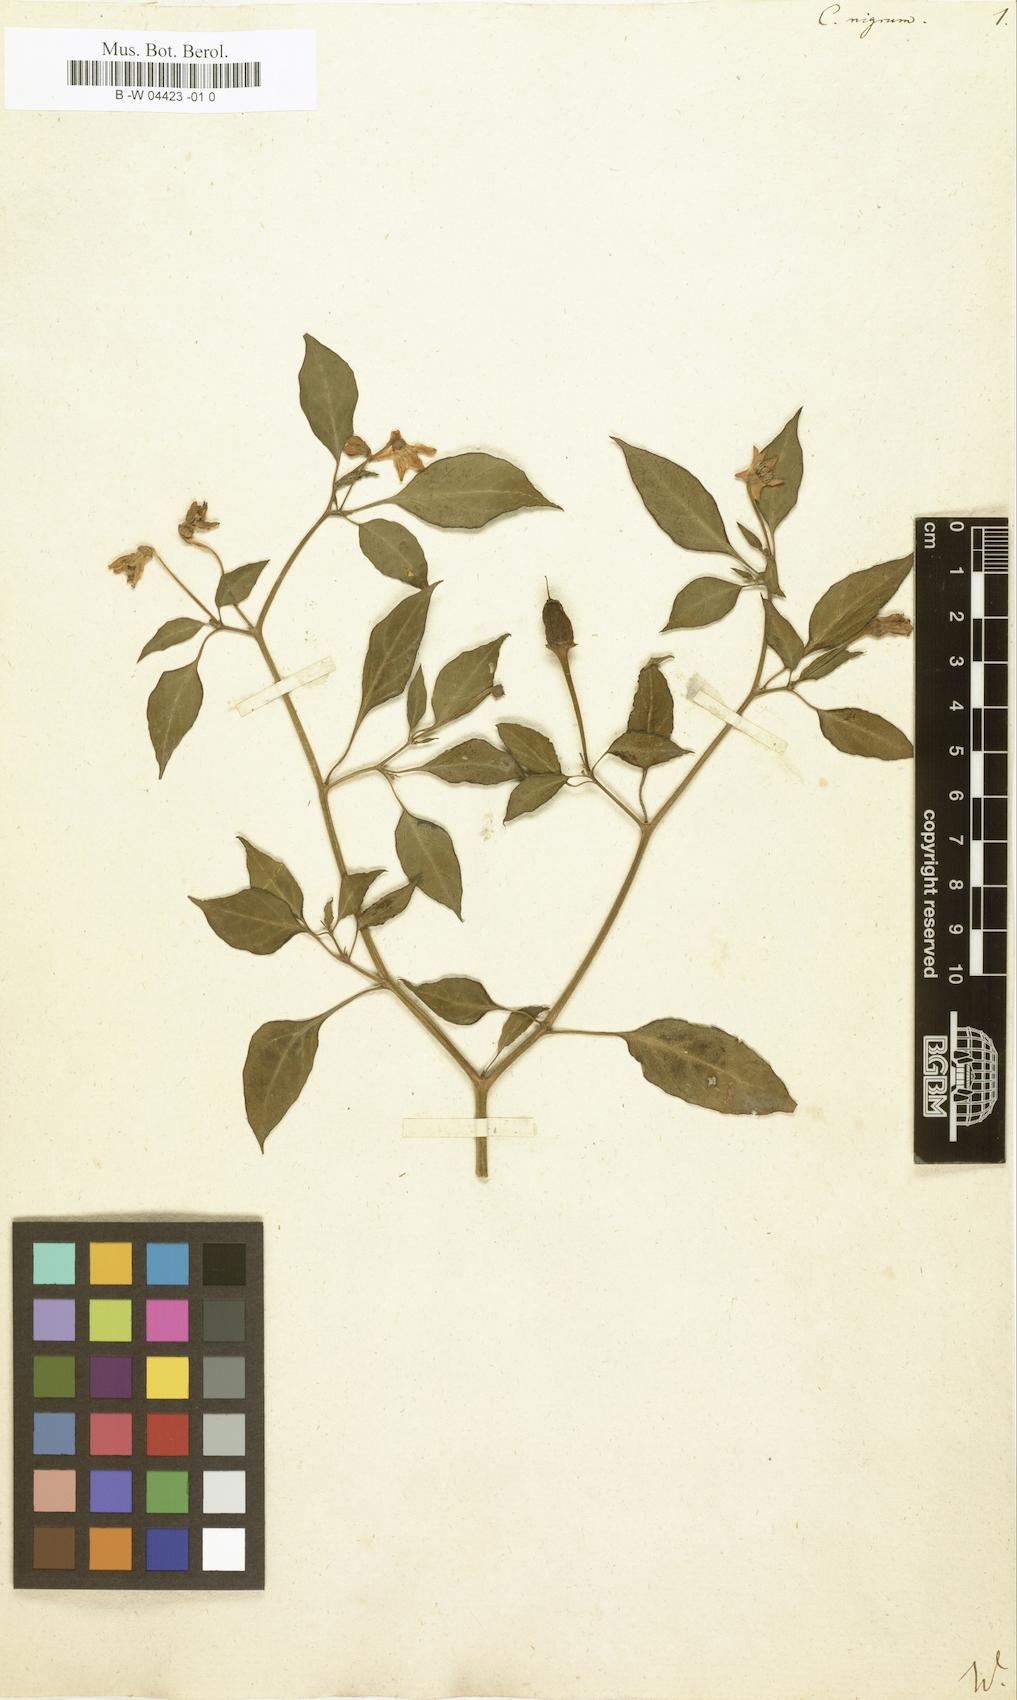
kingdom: Plantae
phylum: Tracheophyta
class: Magnoliopsida
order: Solanales
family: Solanaceae
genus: Capsicum
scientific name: Capsicum annuum
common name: Sweet pepper
